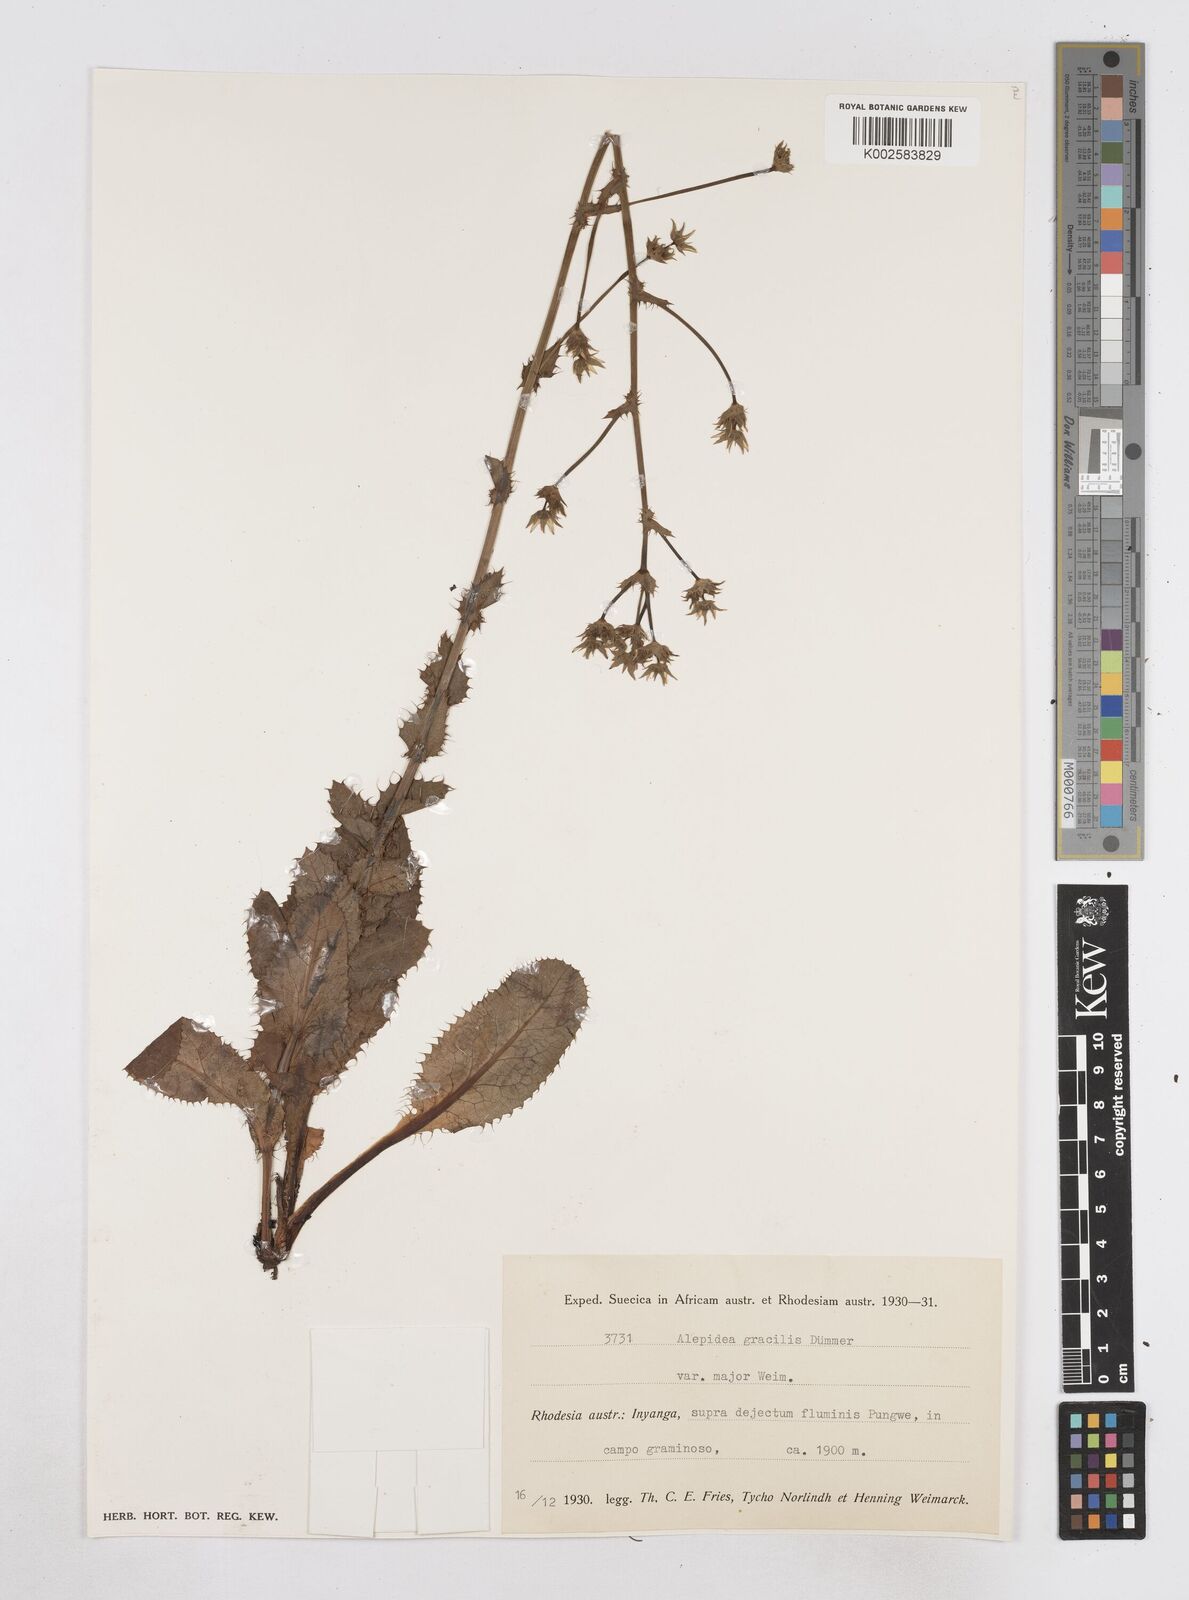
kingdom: Plantae
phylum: Tracheophyta
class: Magnoliopsida
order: Apiales
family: Apiaceae
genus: Alepidea
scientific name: Alepidea peduncularis
